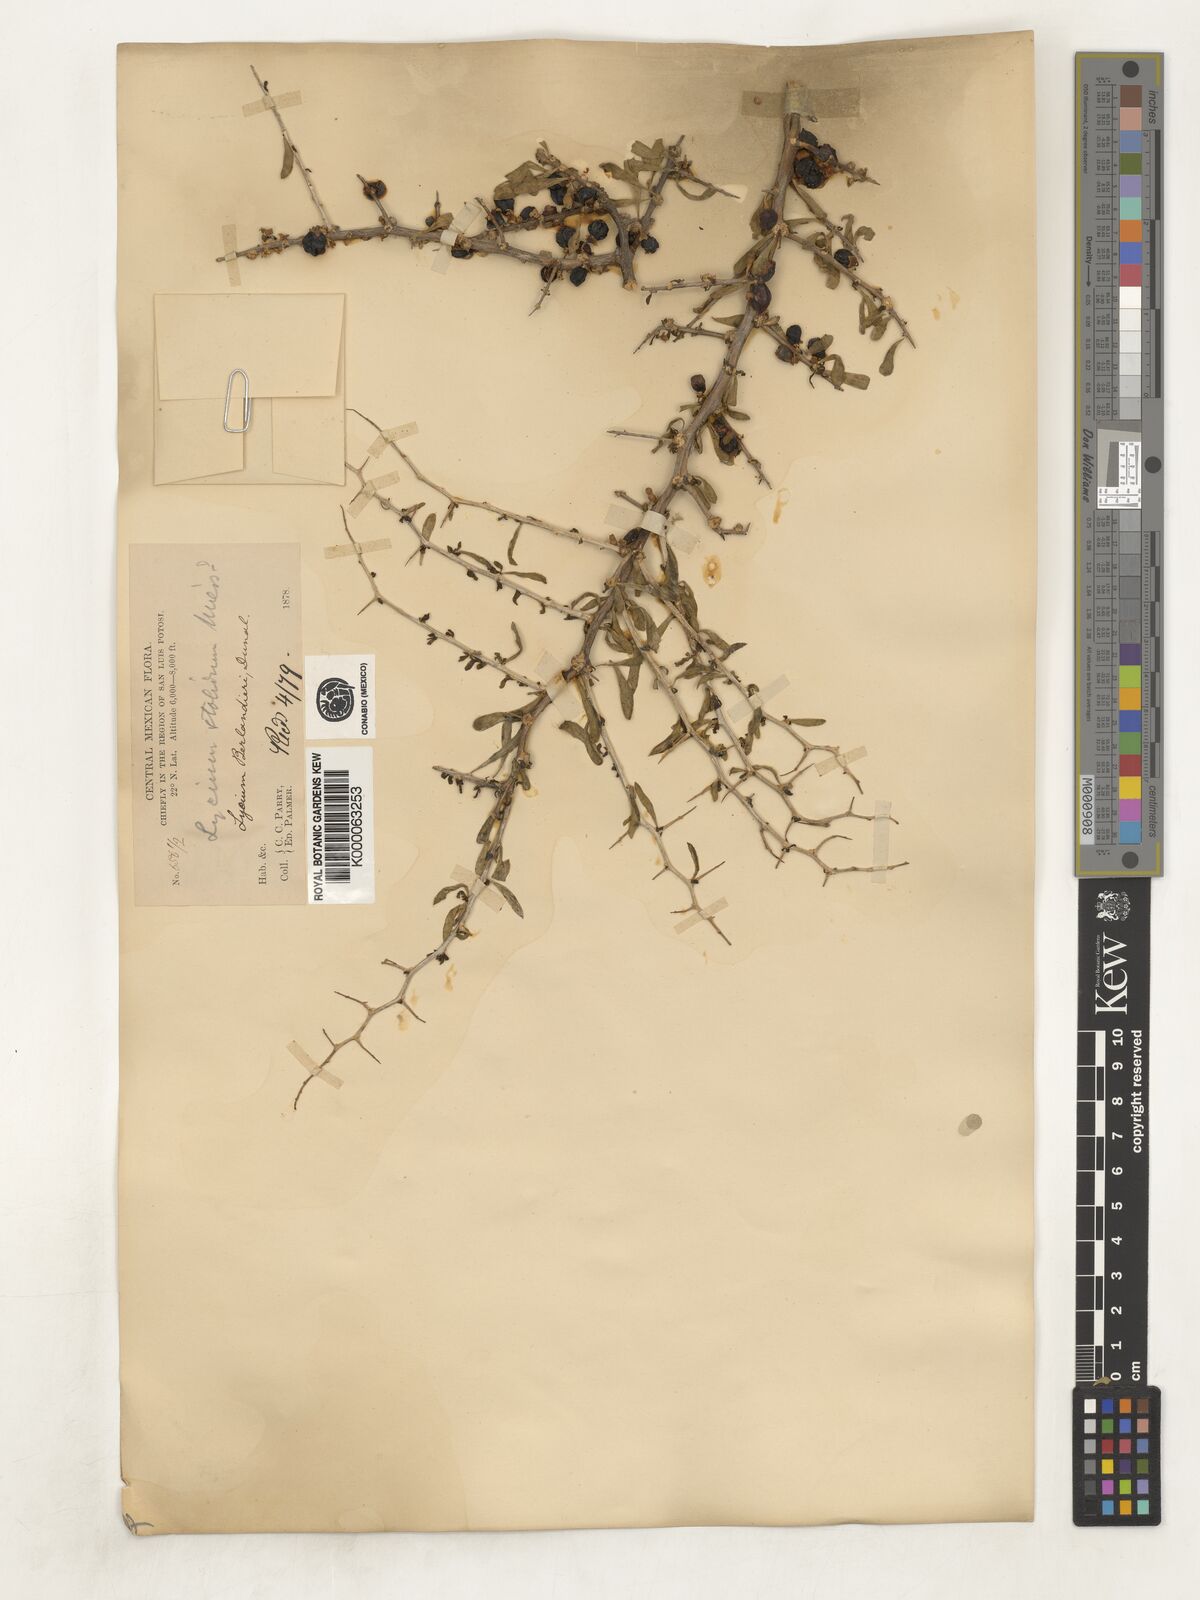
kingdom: Plantae
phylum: Tracheophyta
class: Magnoliopsida
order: Solanales
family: Solanaceae
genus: Lycium
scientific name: Lycium berlandieri
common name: Berlandier wolfberry
